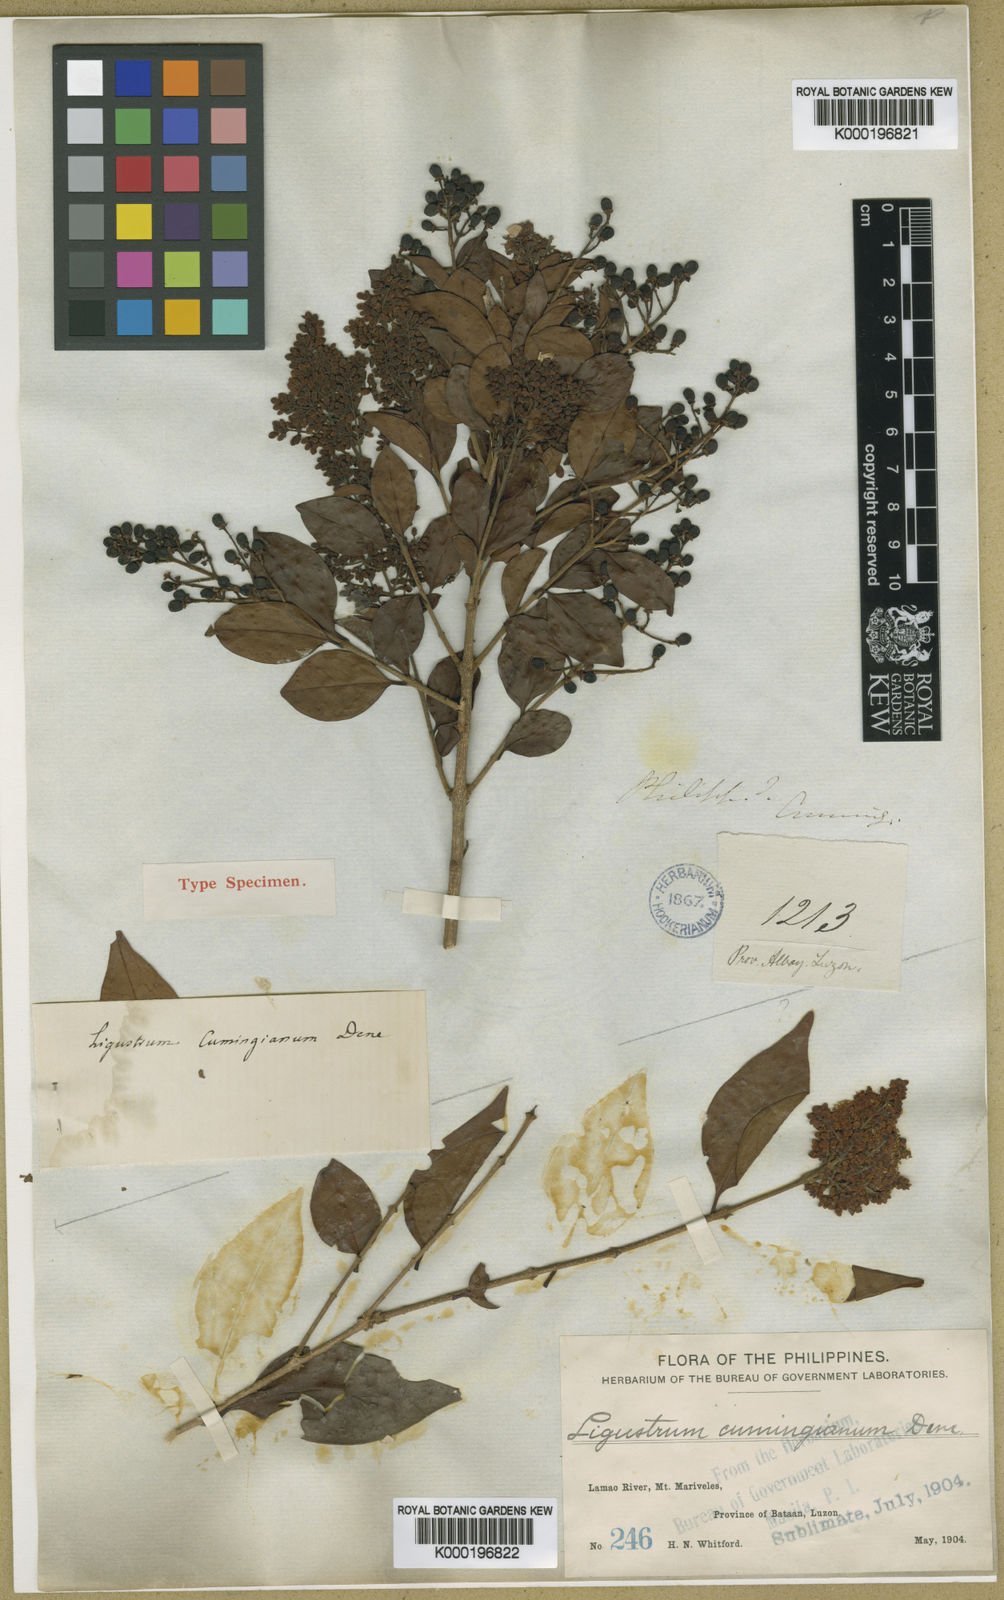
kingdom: Plantae
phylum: Tracheophyta
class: Magnoliopsida
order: Lamiales
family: Oleaceae
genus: Ligustrum
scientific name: Ligustrum cumingianum
